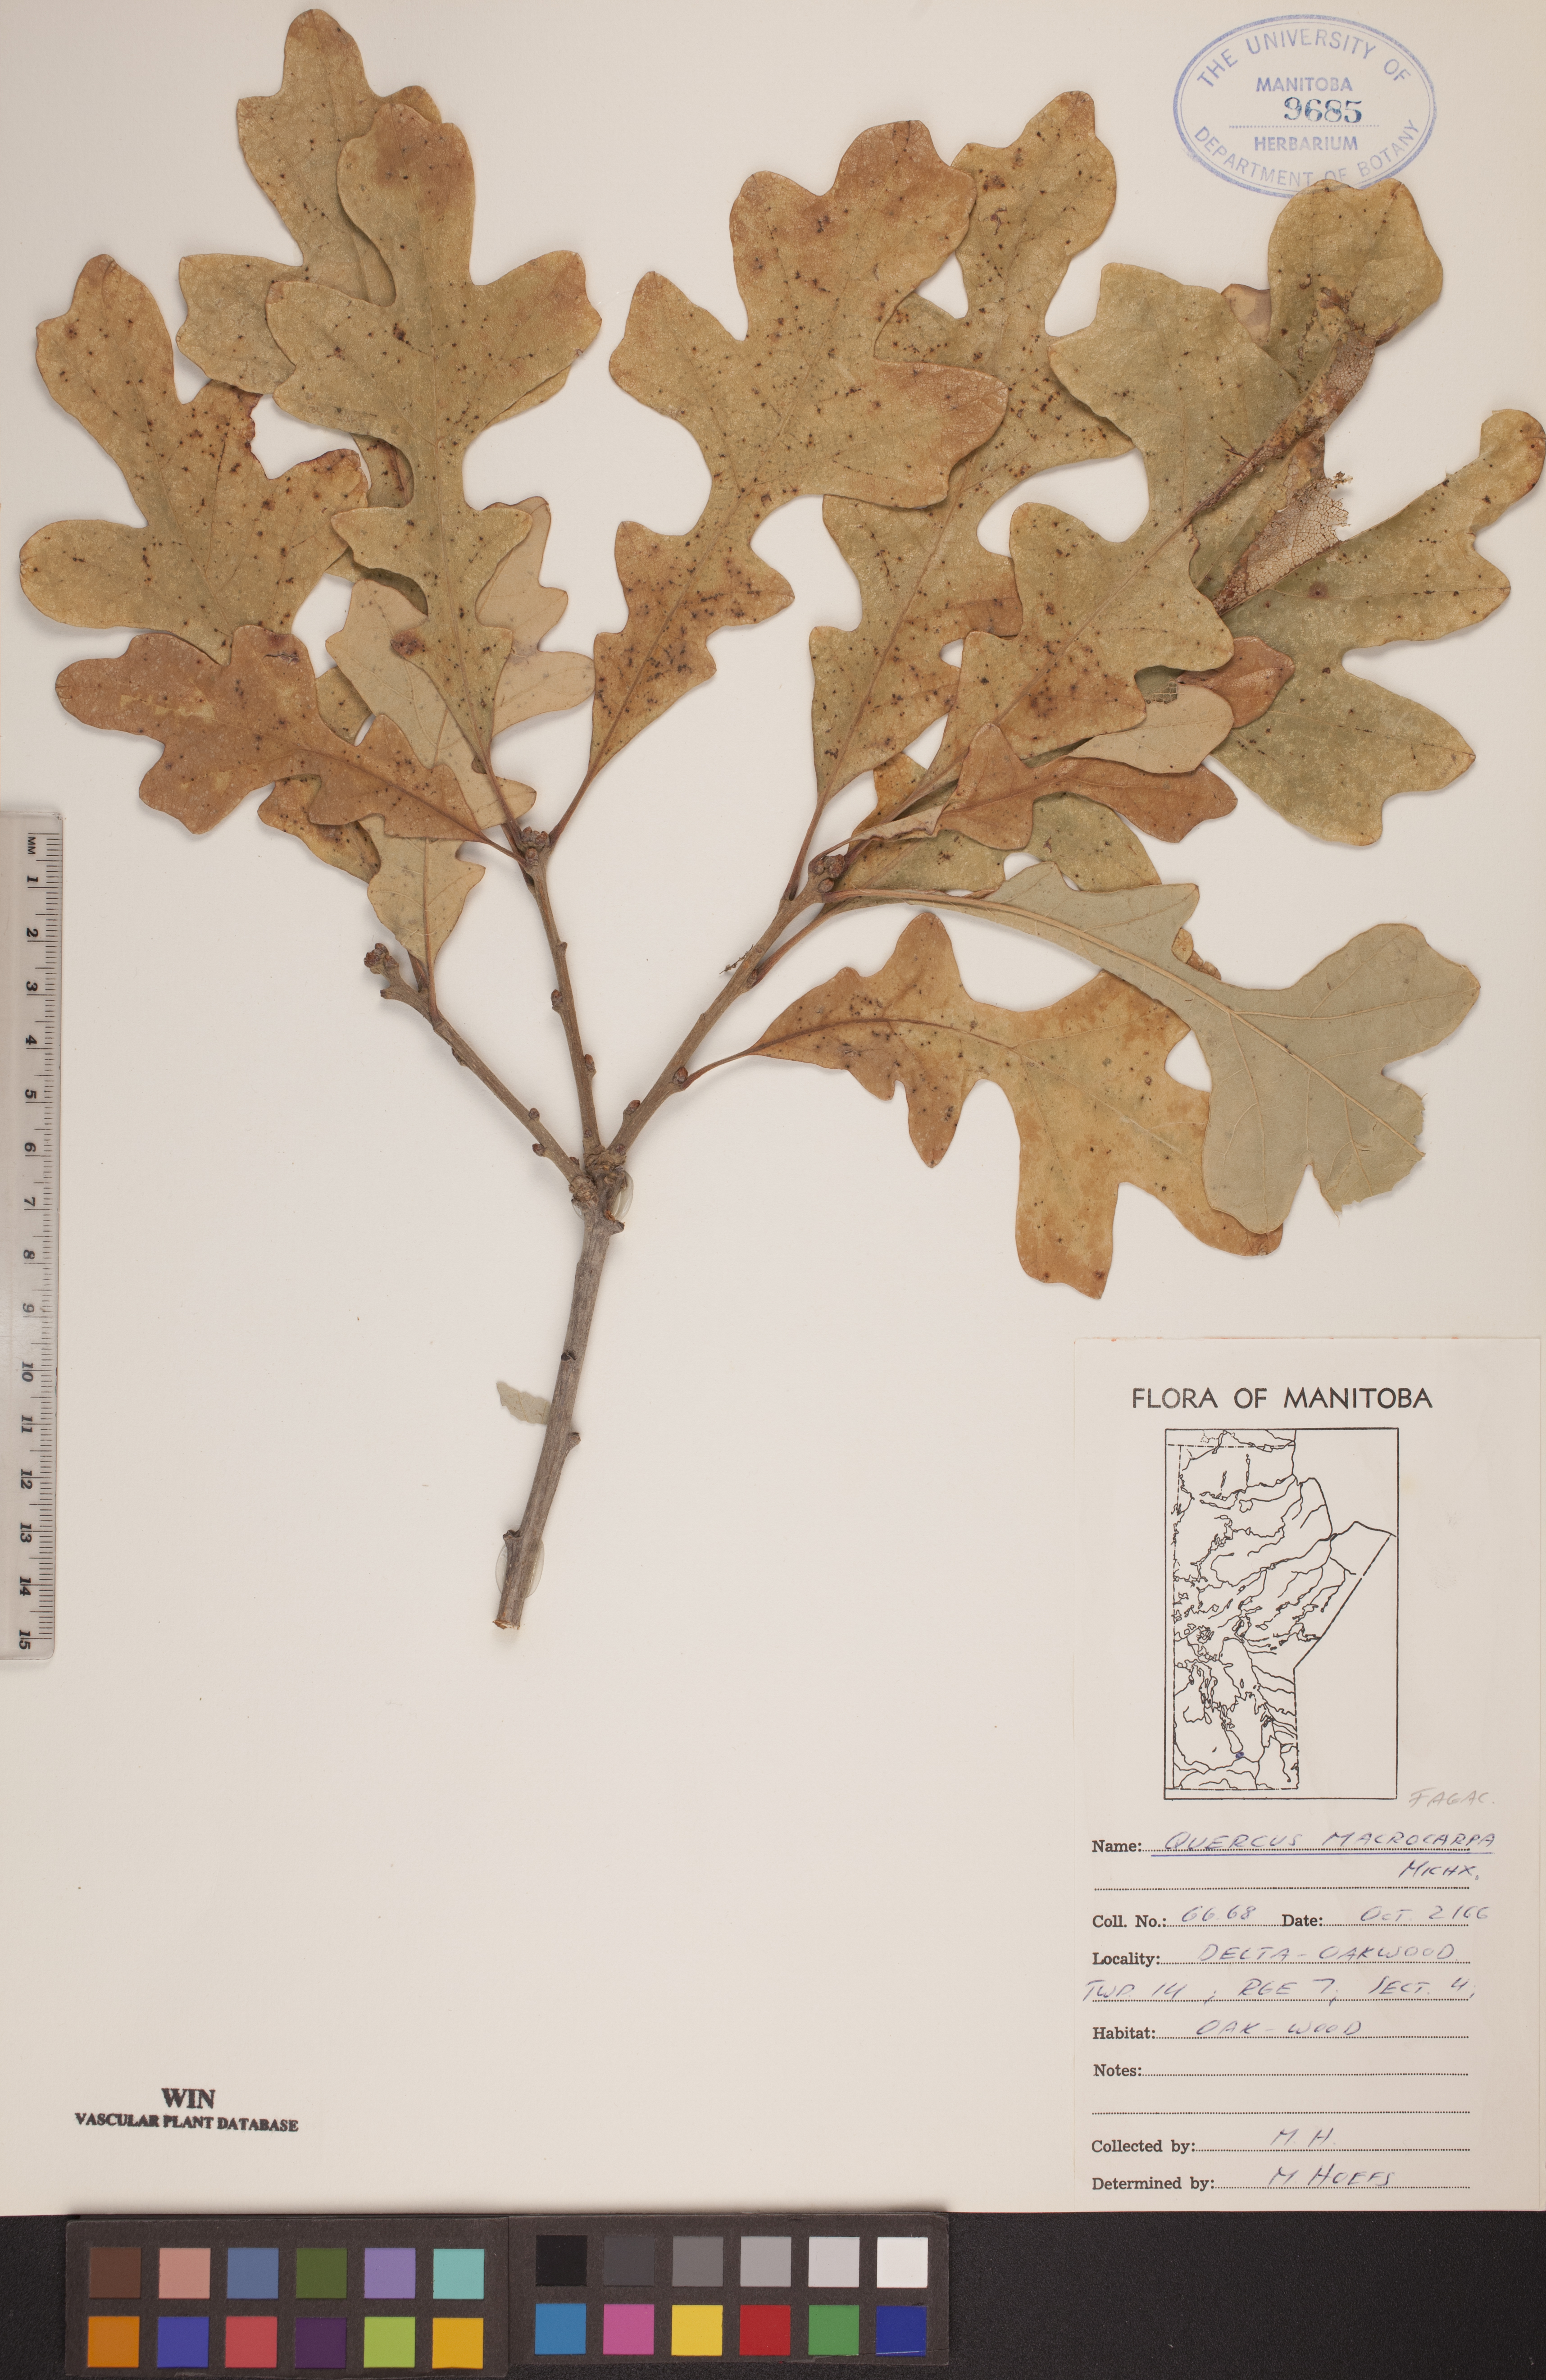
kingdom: Plantae
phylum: Tracheophyta
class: Magnoliopsida
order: Fagales
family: Fagaceae
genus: Quercus
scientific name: Quercus macrocarpa
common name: Bur oak
